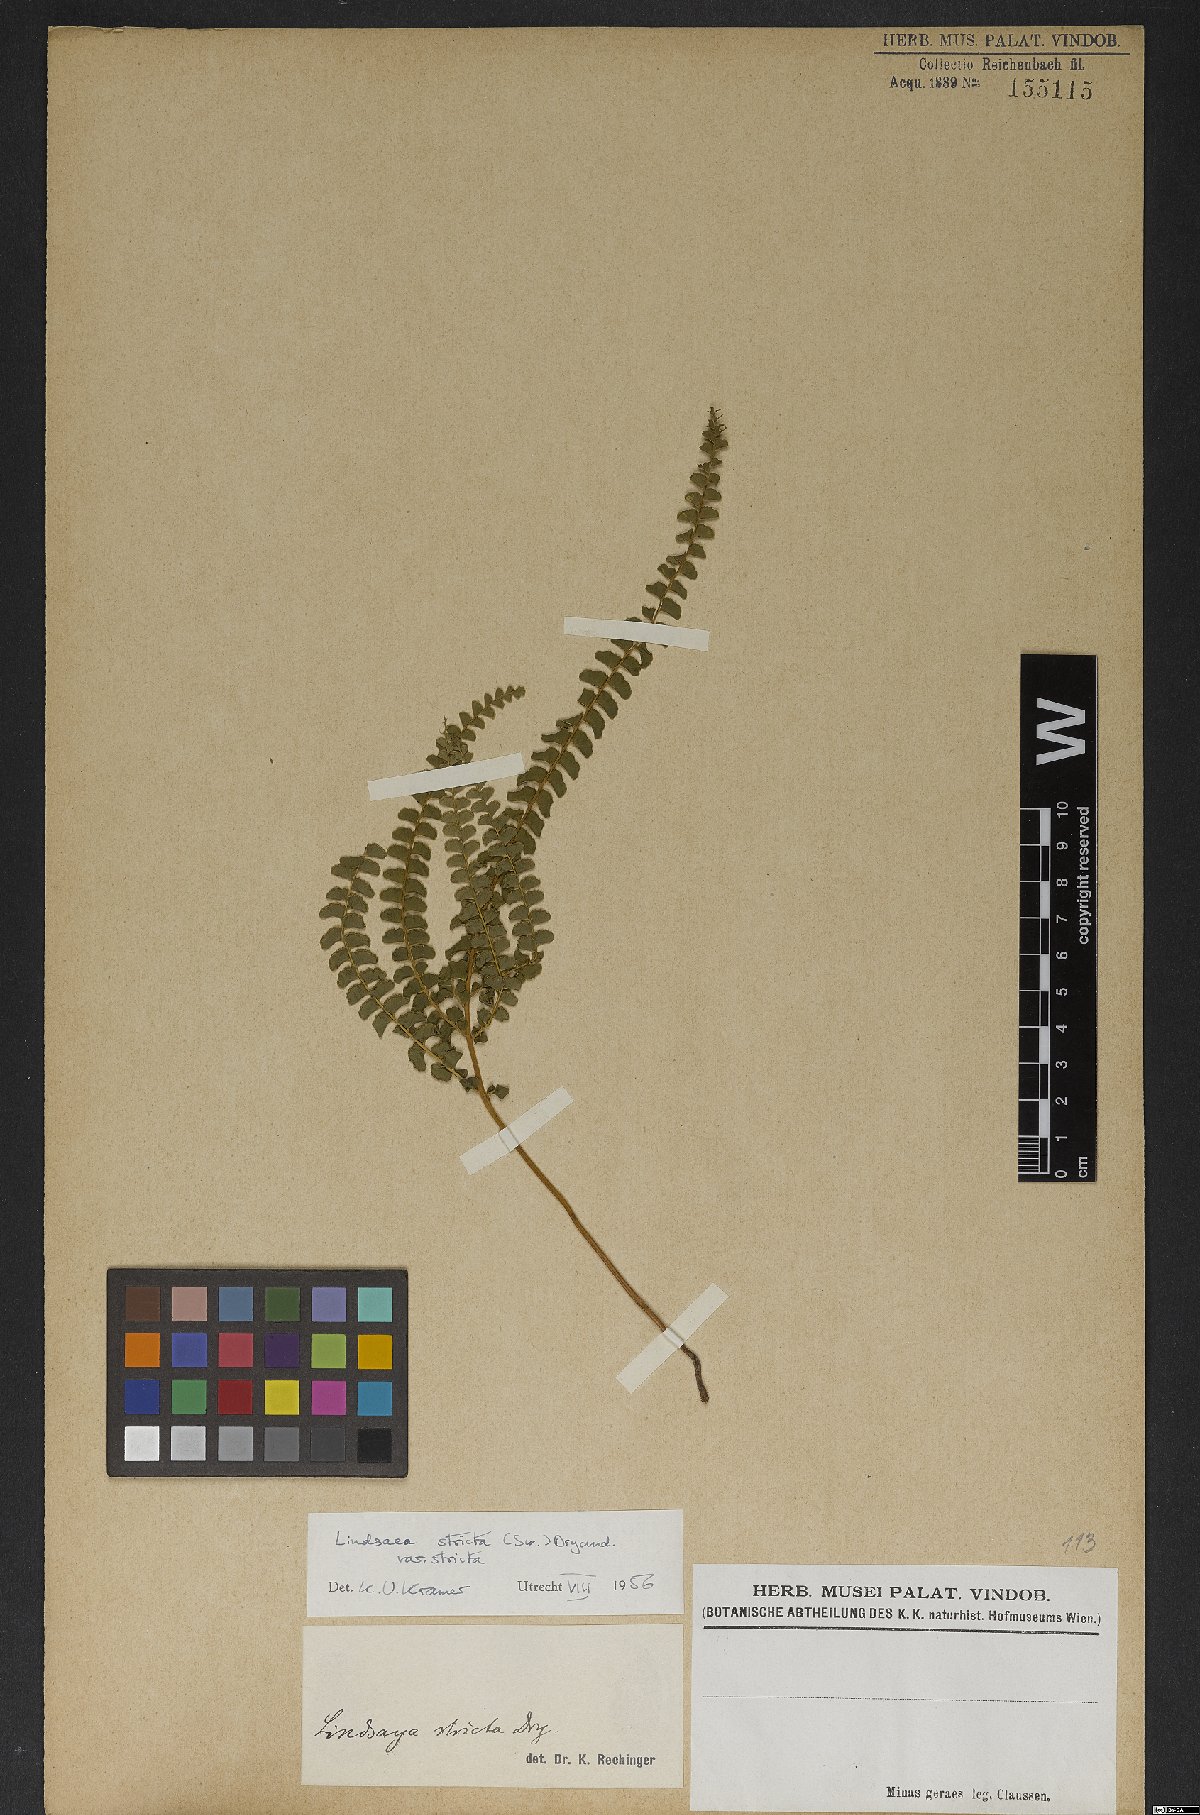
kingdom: Plantae
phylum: Tracheophyta
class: Polypodiopsida
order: Polypodiales
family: Lindsaeaceae
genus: Lindsaea
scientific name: Lindsaea stricta
